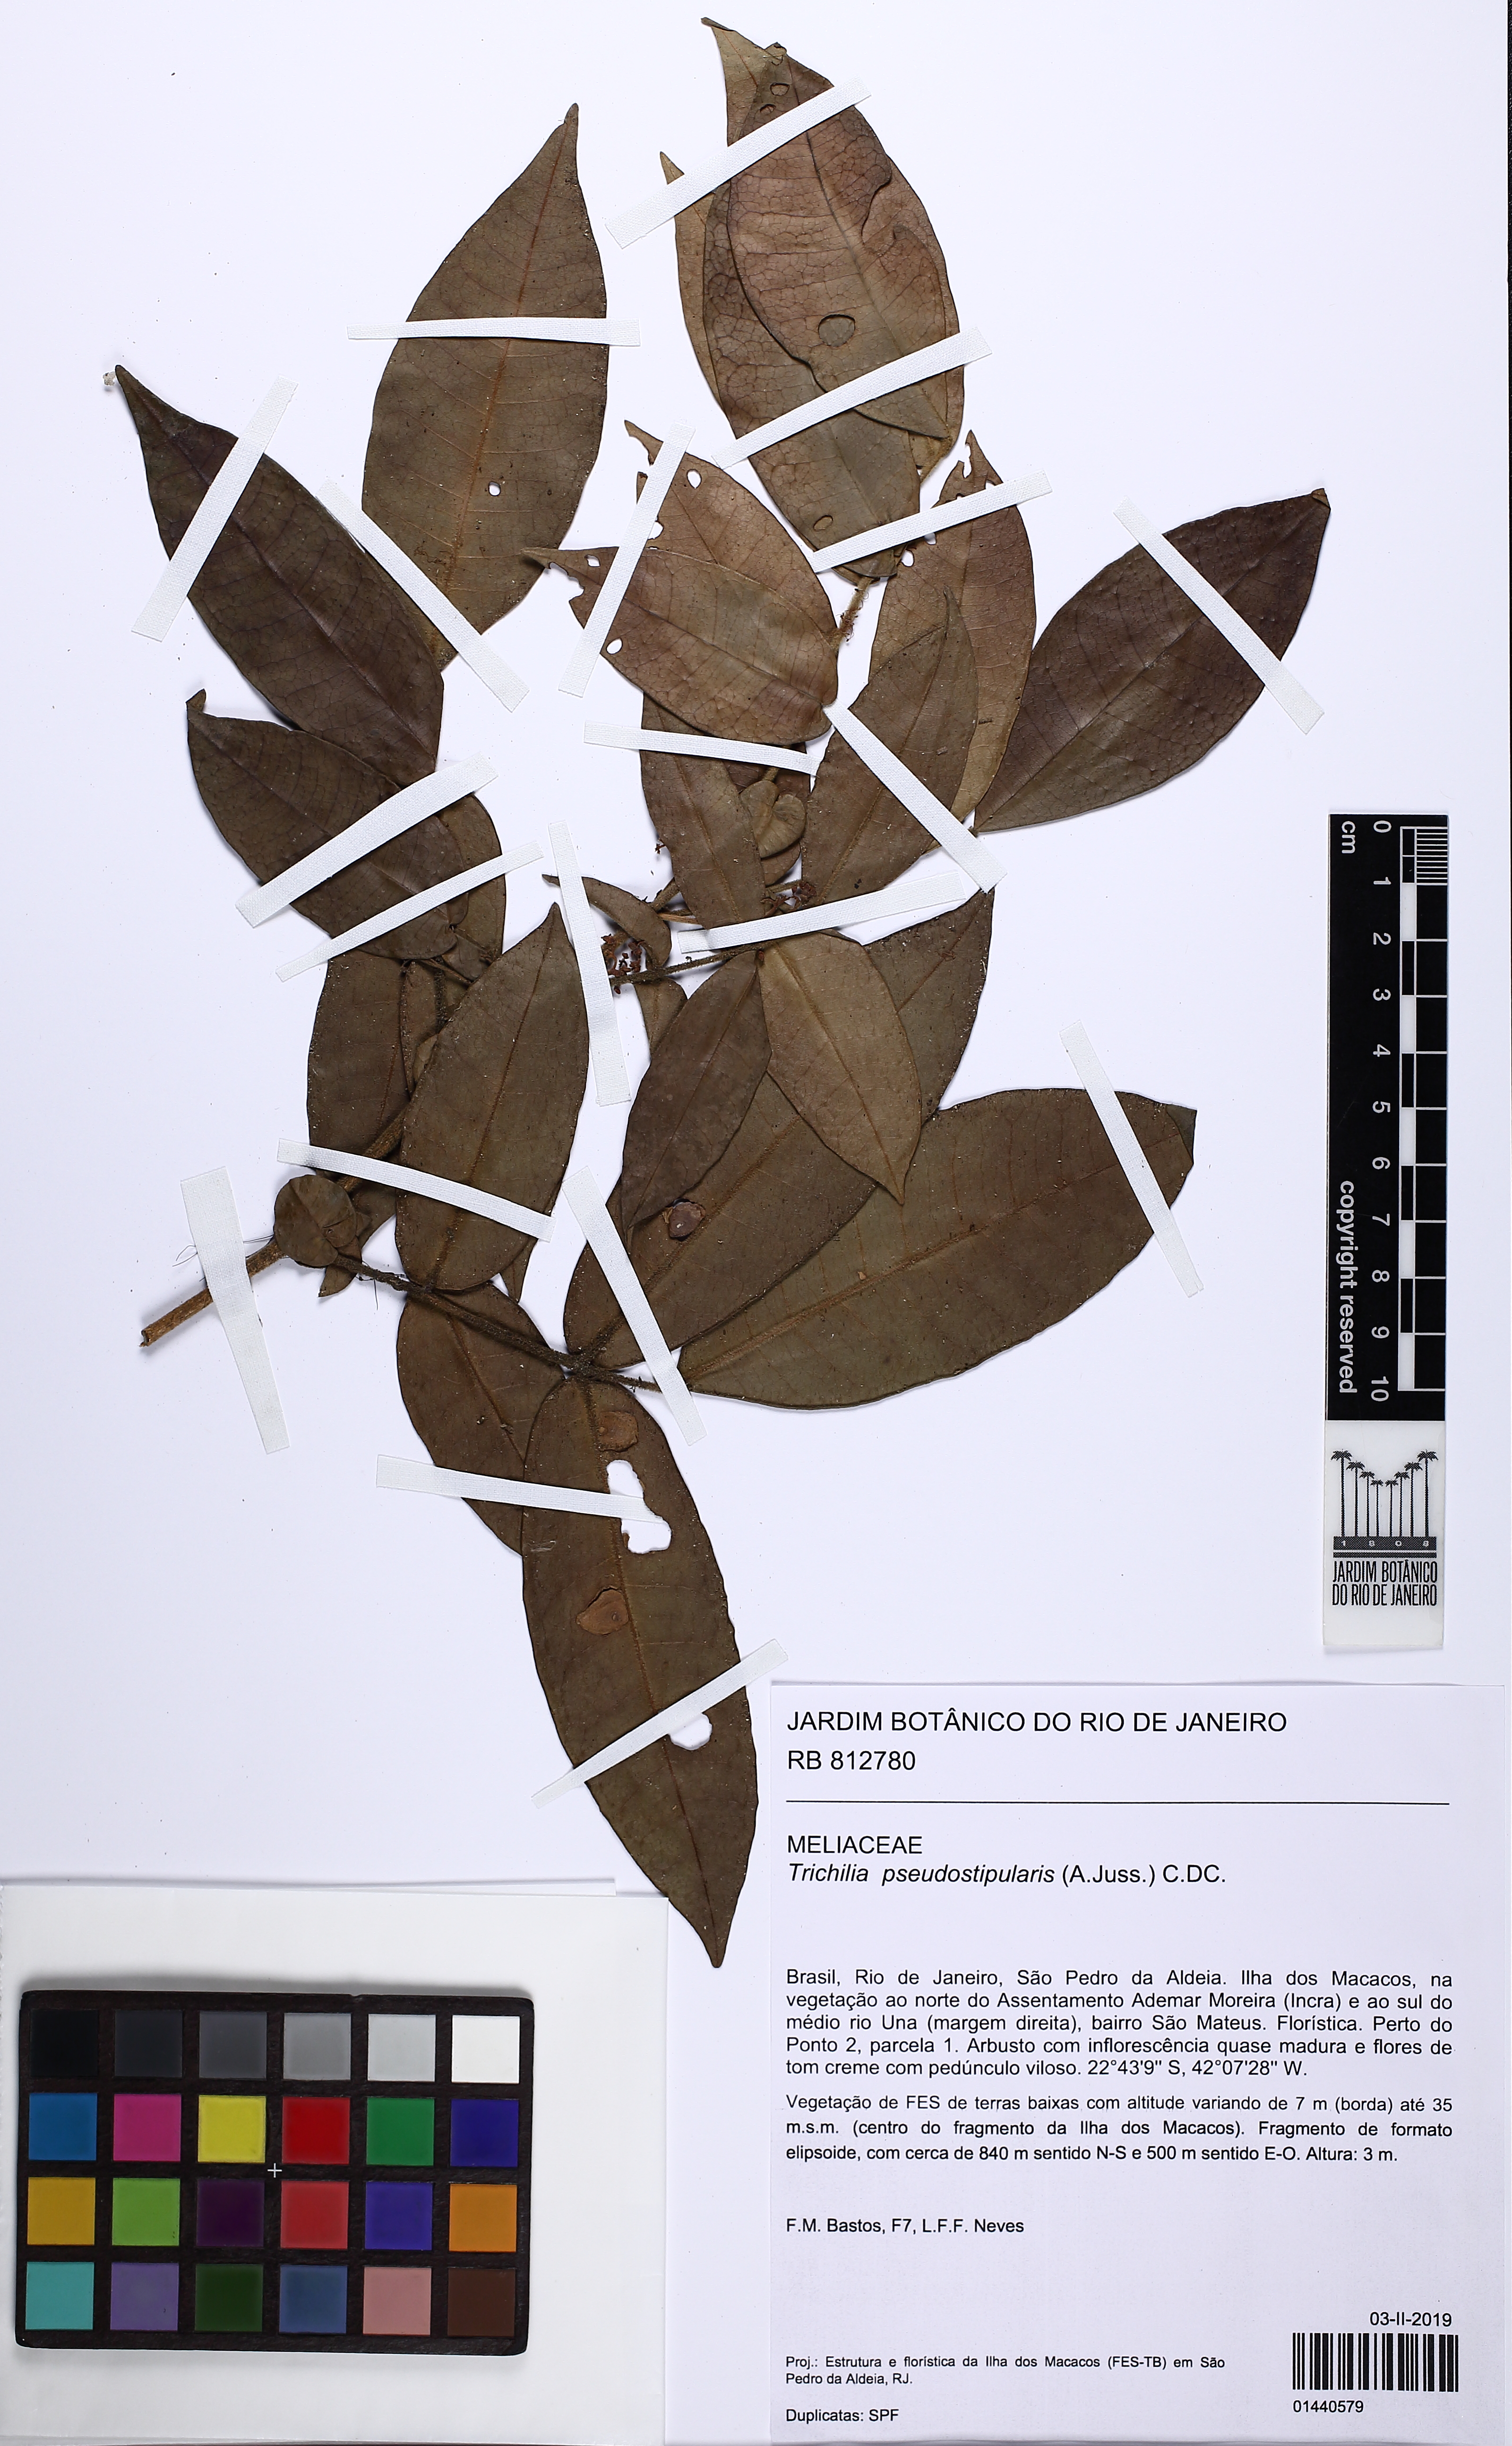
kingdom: Plantae
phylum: Tracheophyta
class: Magnoliopsida
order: Sapindales
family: Meliaceae
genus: Trichilia
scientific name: Trichilia pseudostipularis
